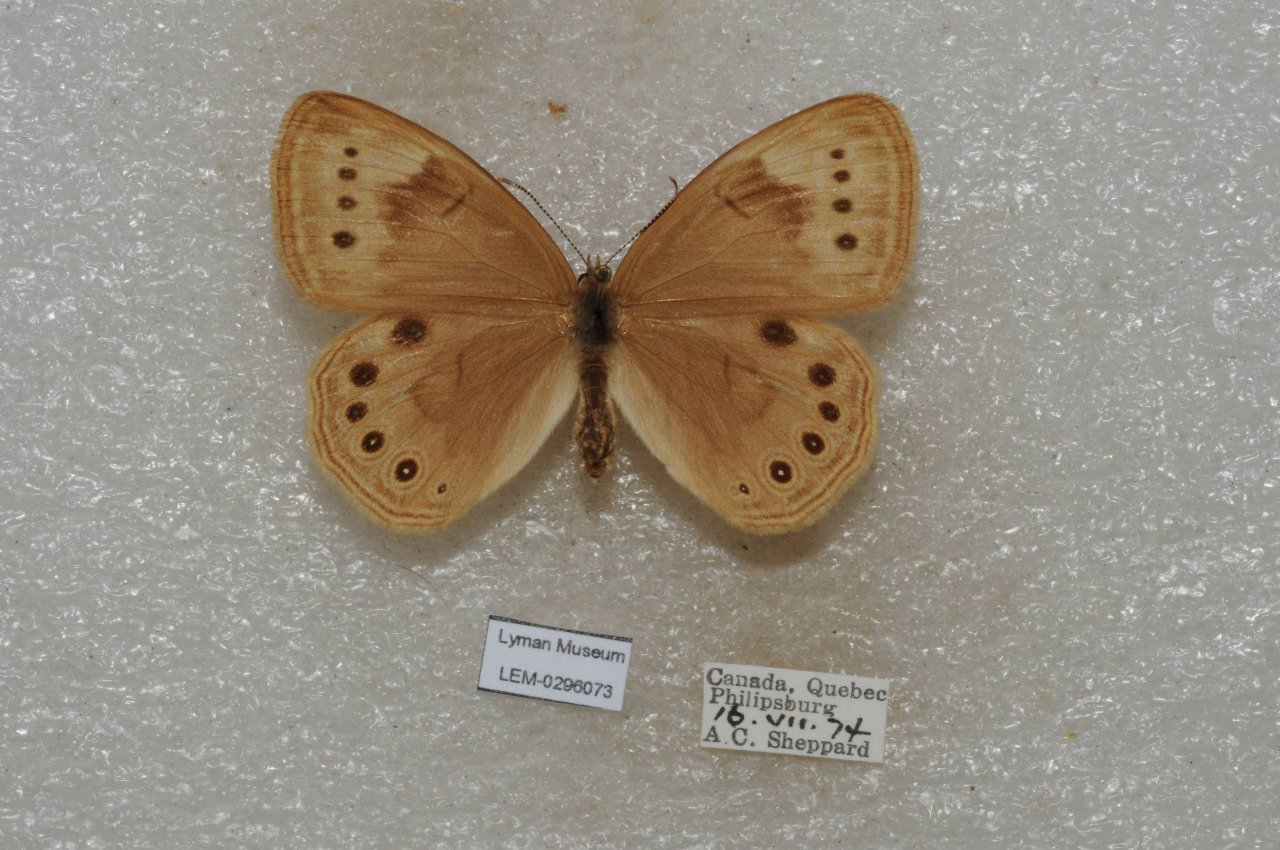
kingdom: Animalia
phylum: Arthropoda
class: Insecta
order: Lepidoptera
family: Nymphalidae
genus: Lethe
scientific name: Lethe eurydice
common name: Eyed Brown
